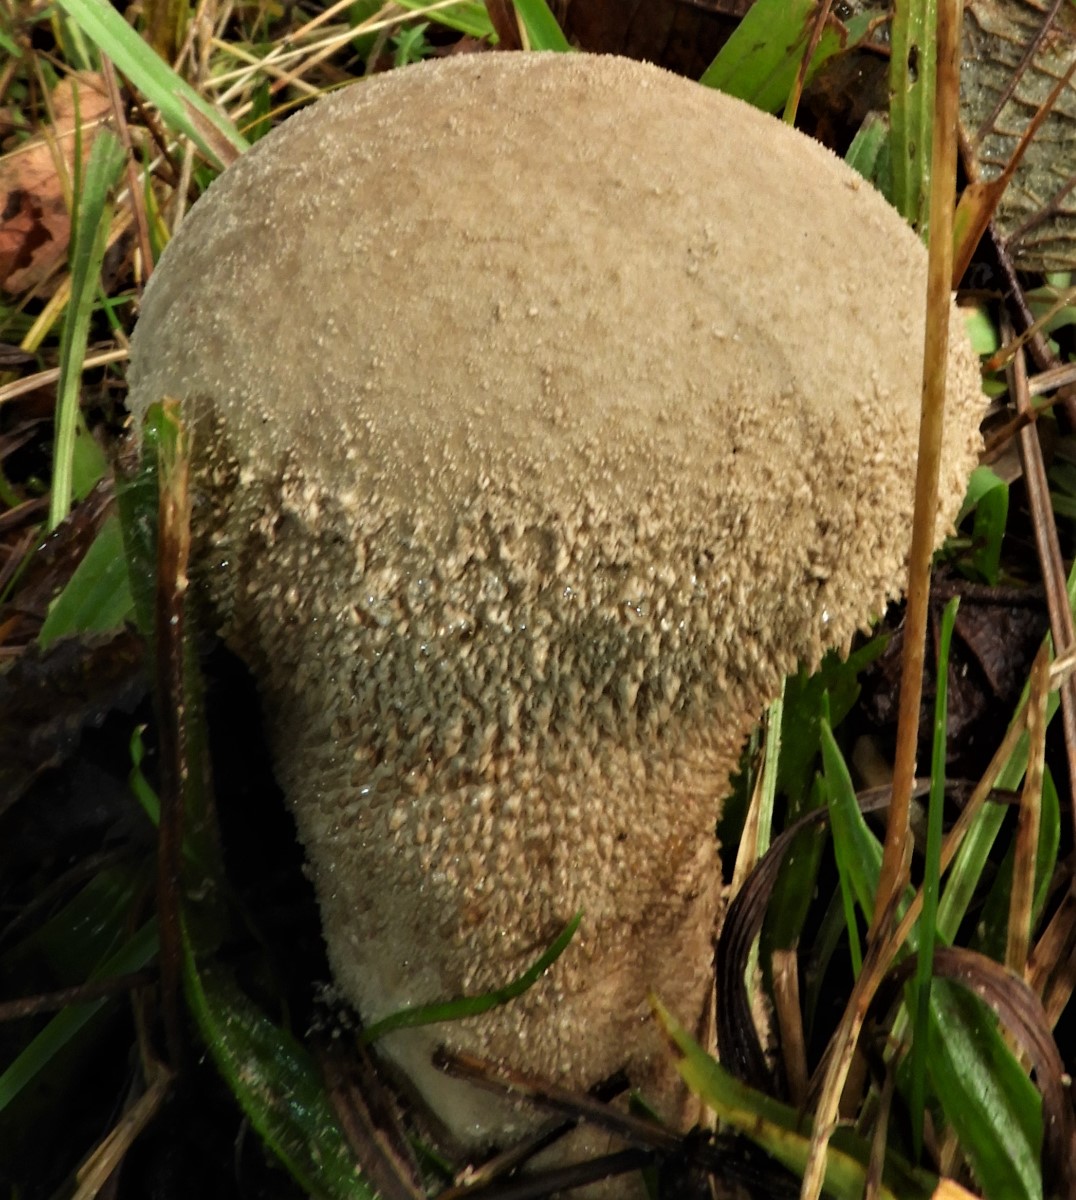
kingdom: Fungi
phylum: Basidiomycota
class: Agaricomycetes
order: Agaricales
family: Lycoperdaceae
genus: Lycoperdon
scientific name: Lycoperdon excipuliforme
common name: højstokket støvbold
